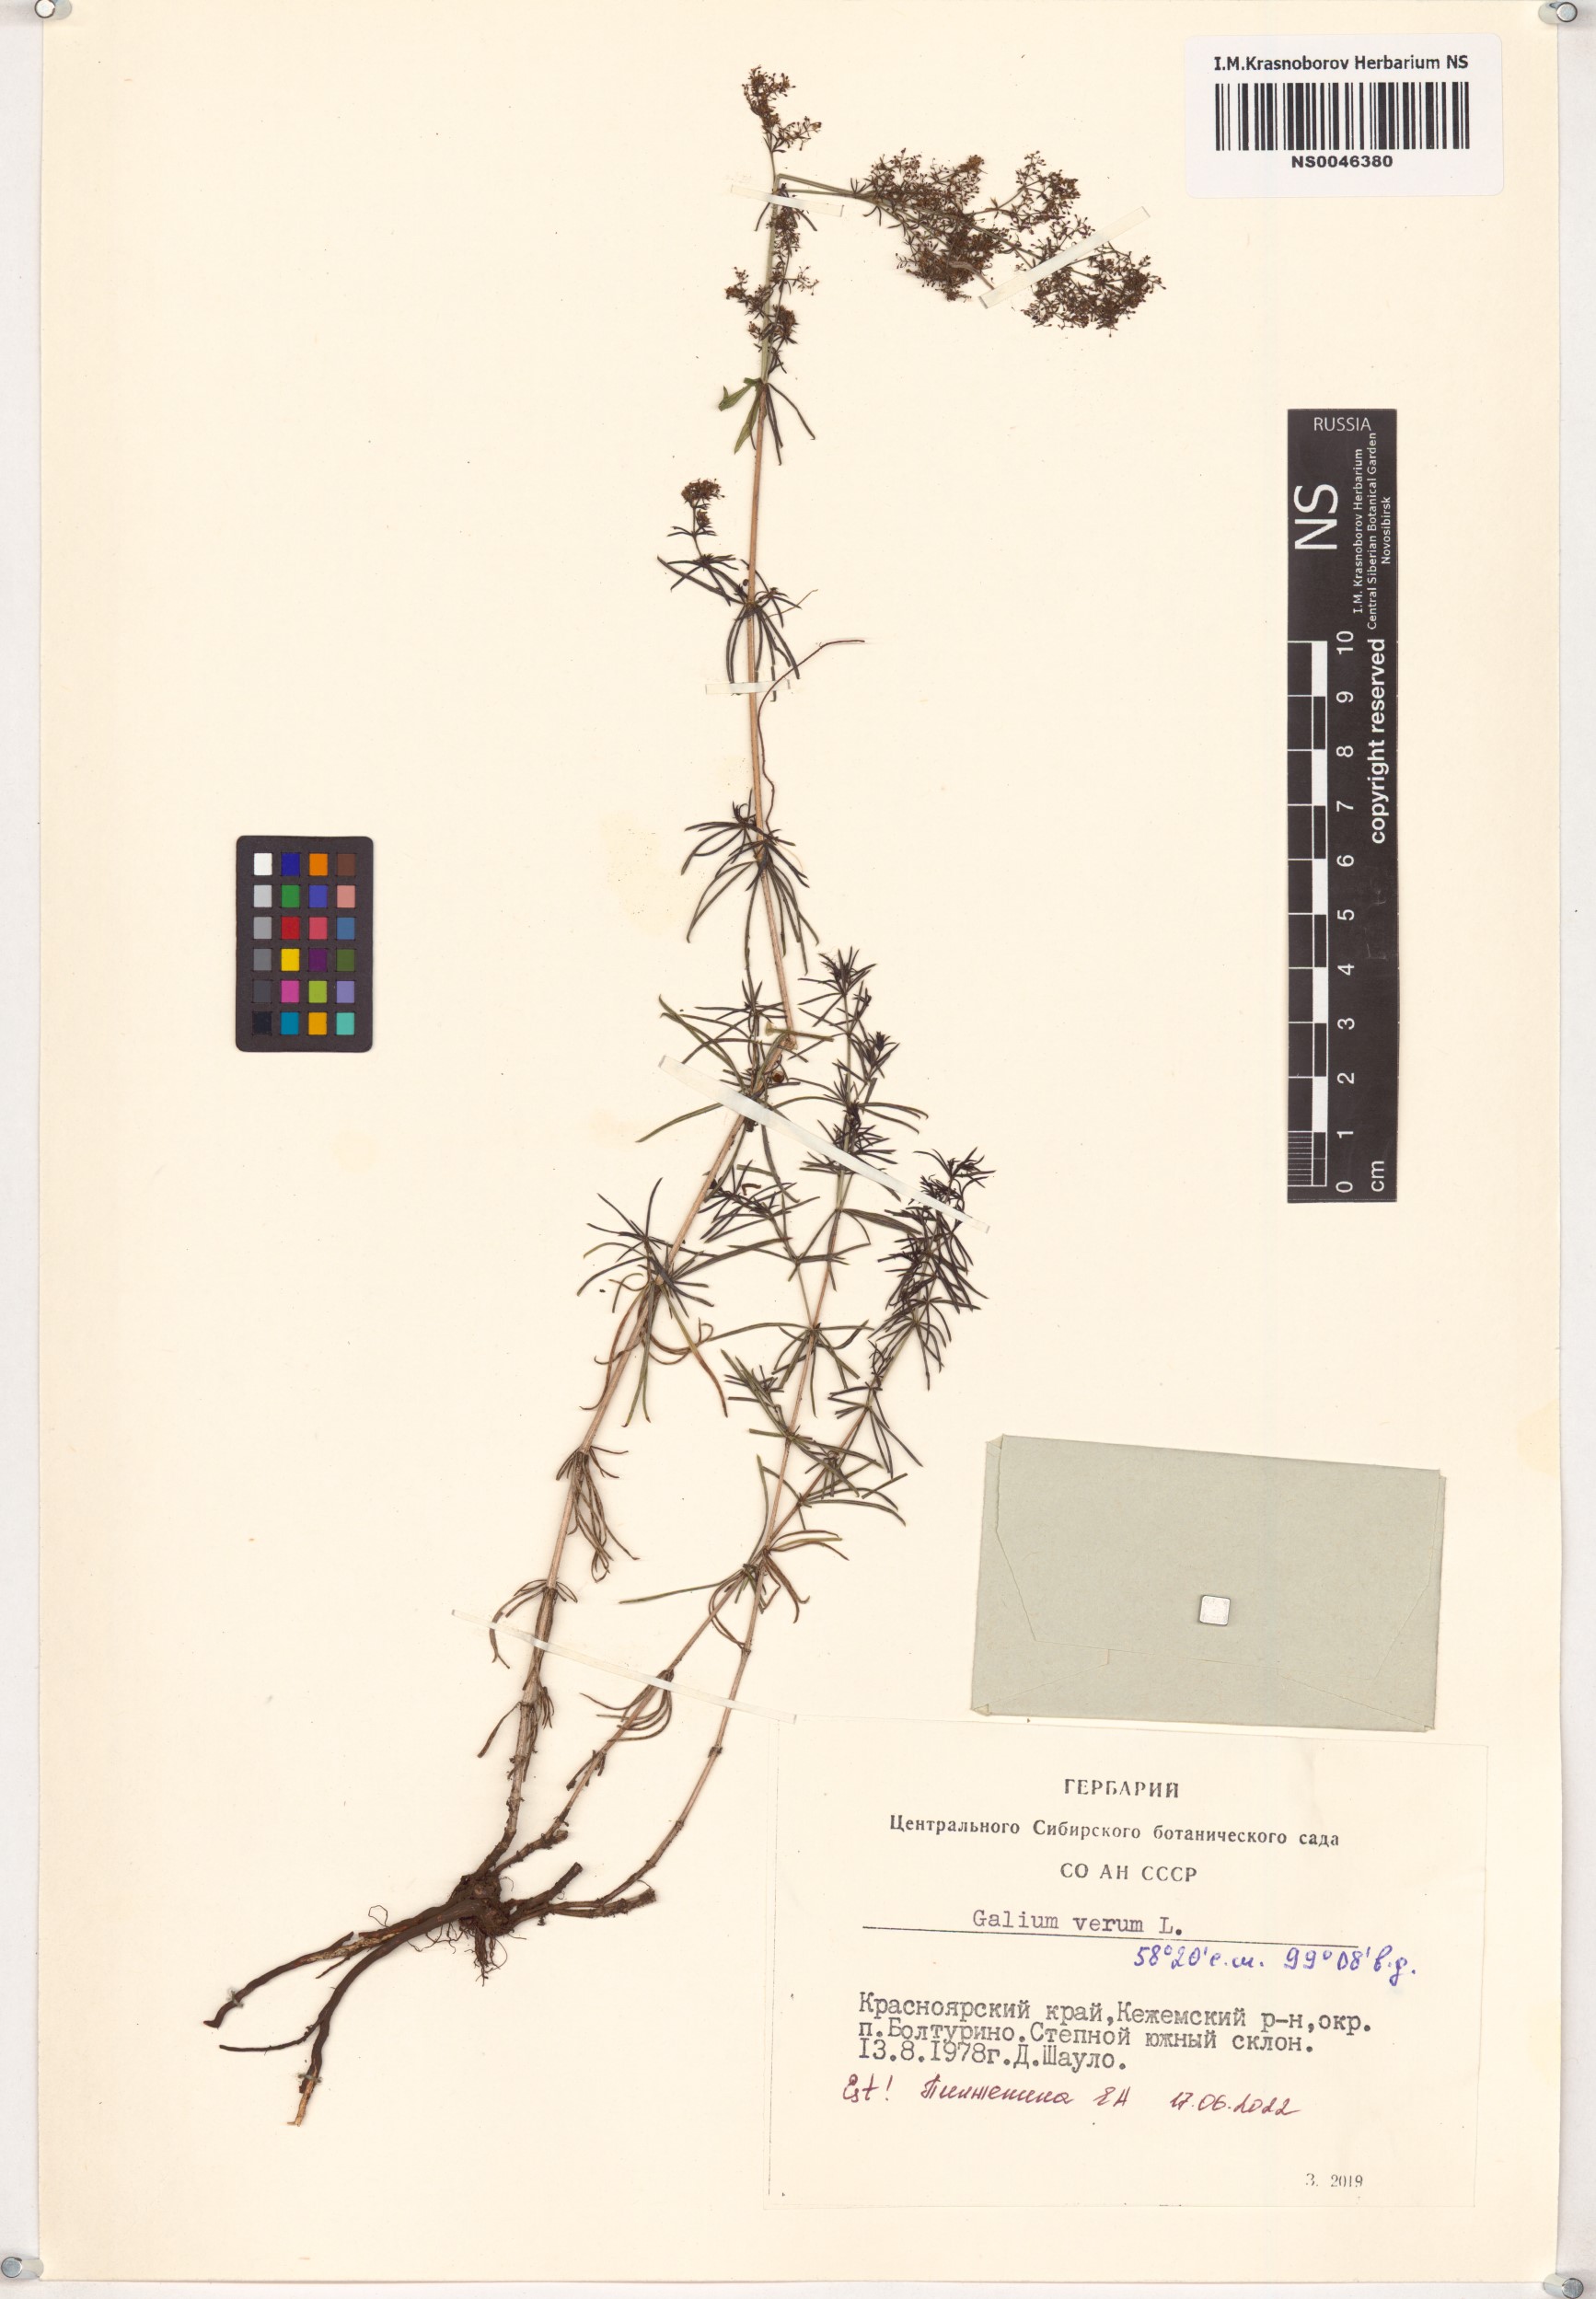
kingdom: Plantae
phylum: Tracheophyta
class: Magnoliopsida
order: Gentianales
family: Rubiaceae
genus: Galium
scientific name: Galium verum
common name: Lady's bedstraw
